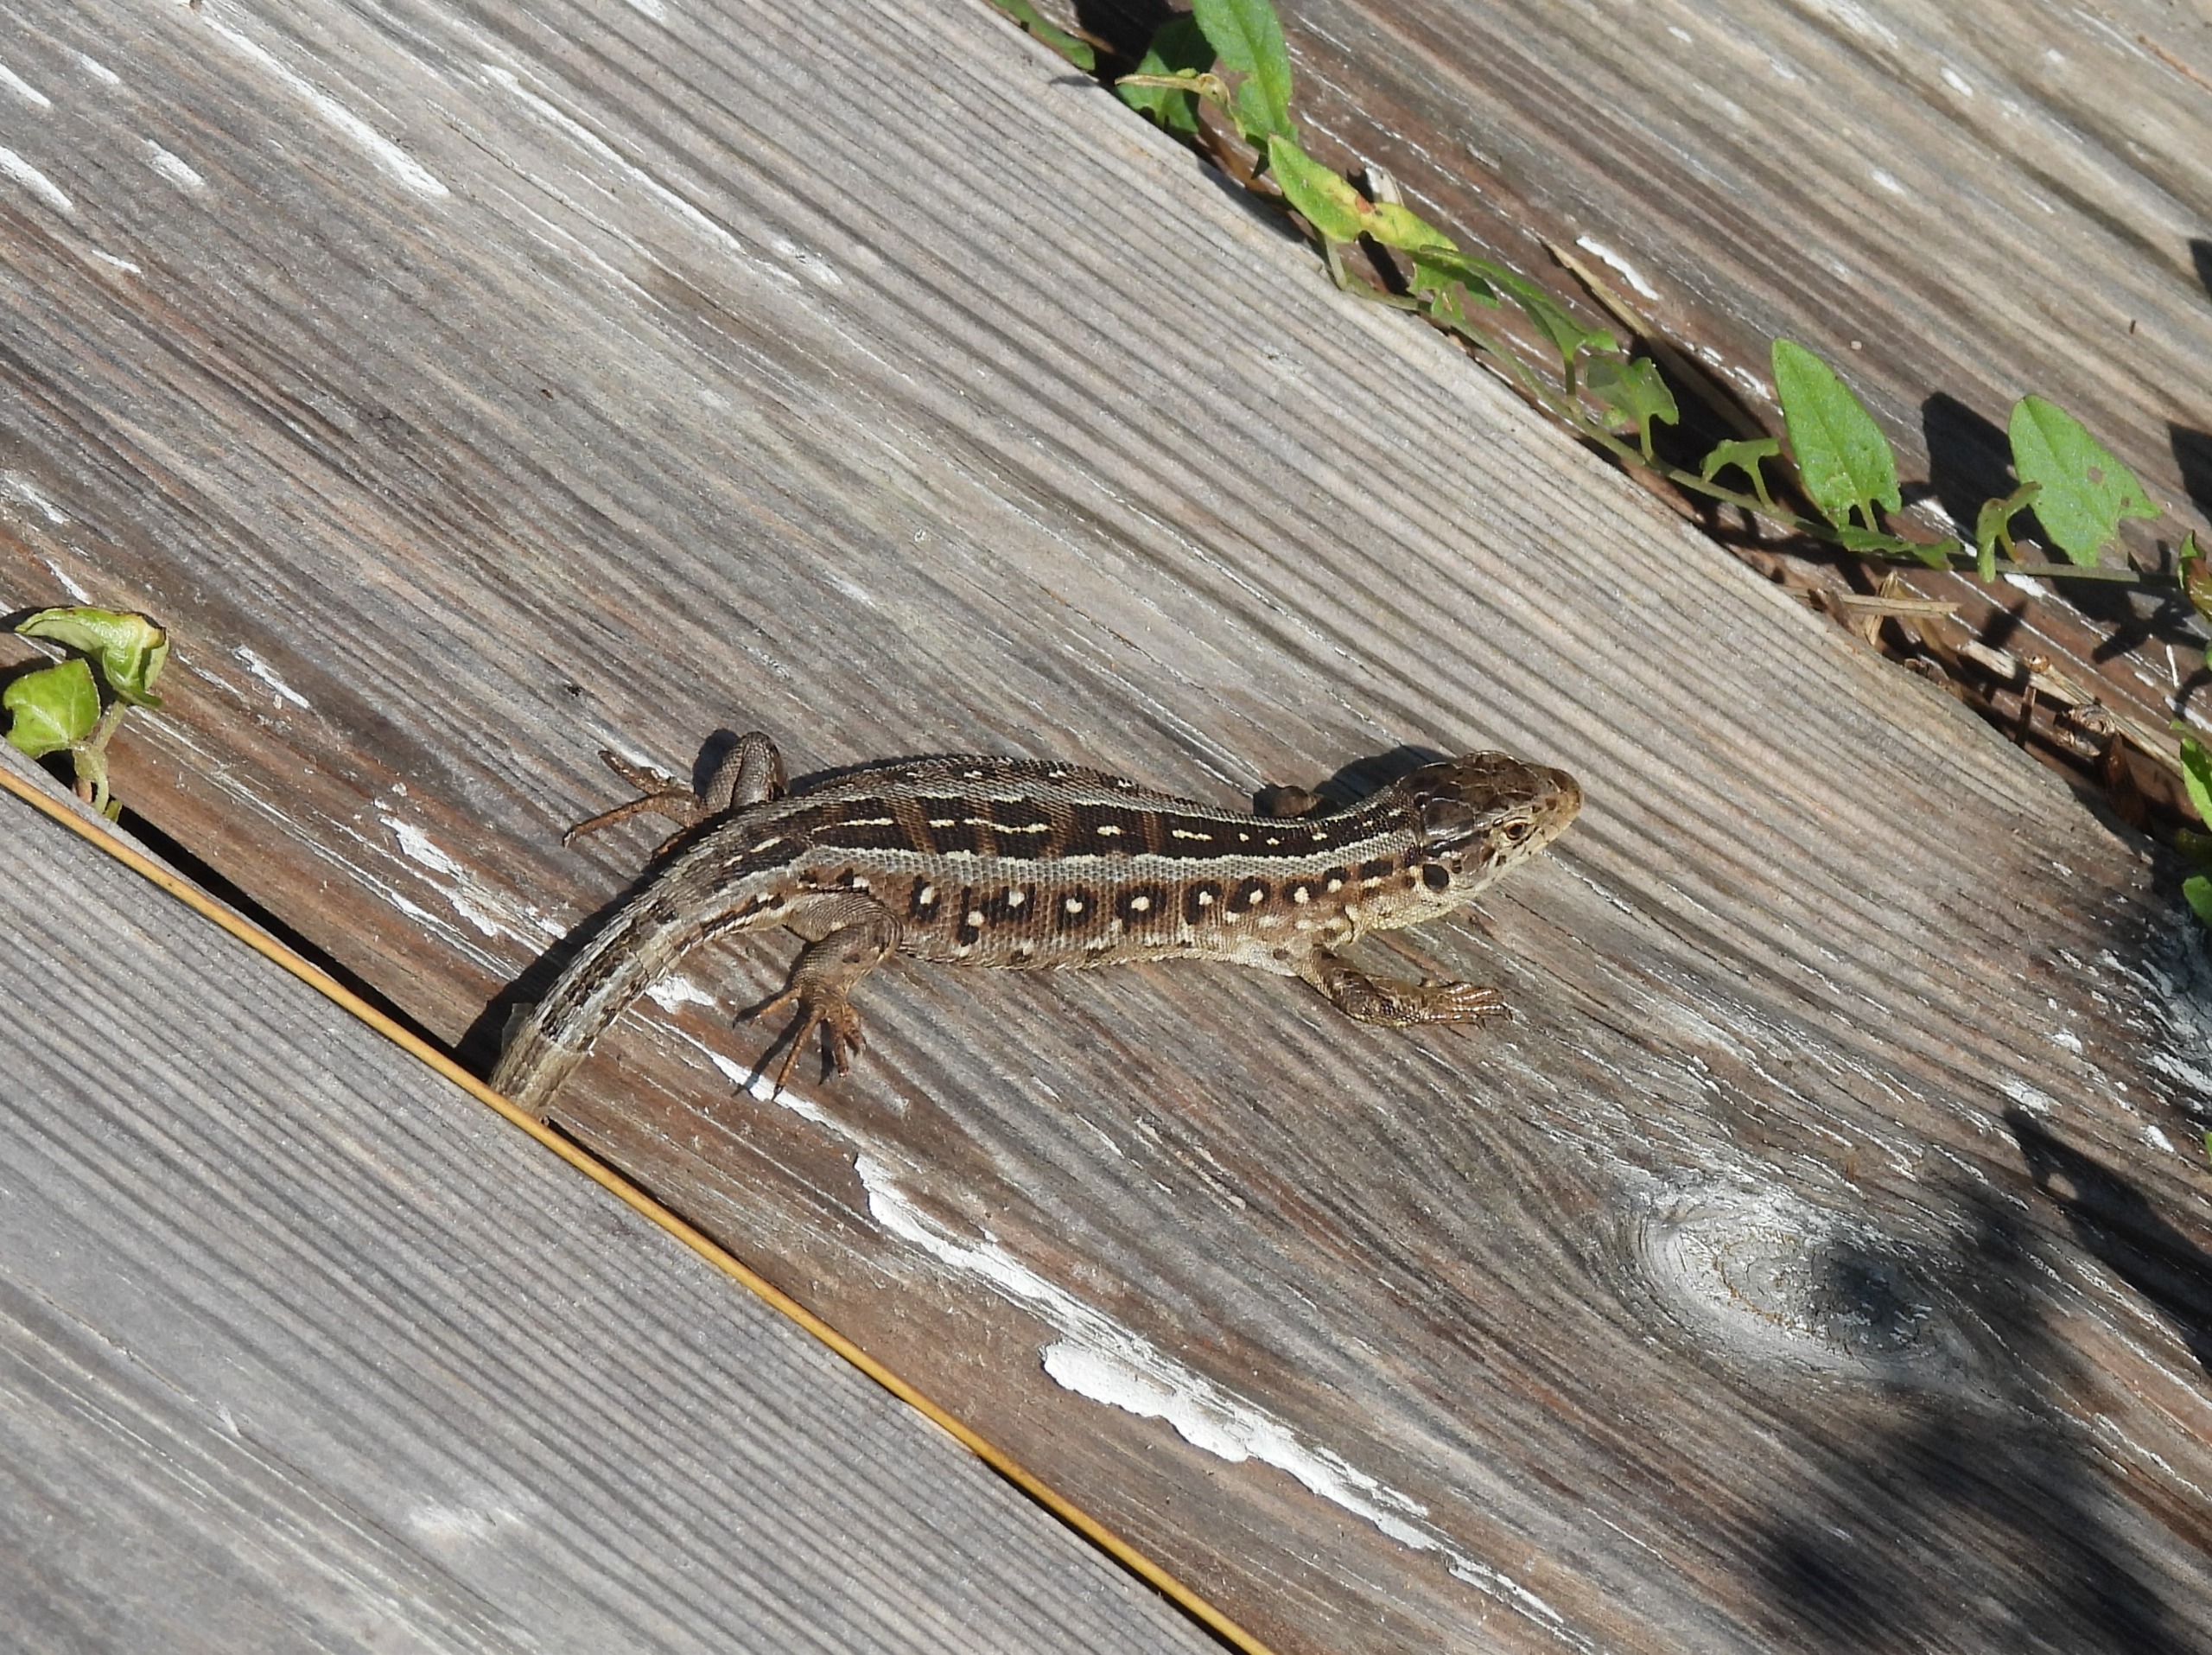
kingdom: Animalia
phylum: Chordata
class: Squamata
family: Lacertidae
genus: Lacerta
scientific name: Lacerta agilis
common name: Markfirben
